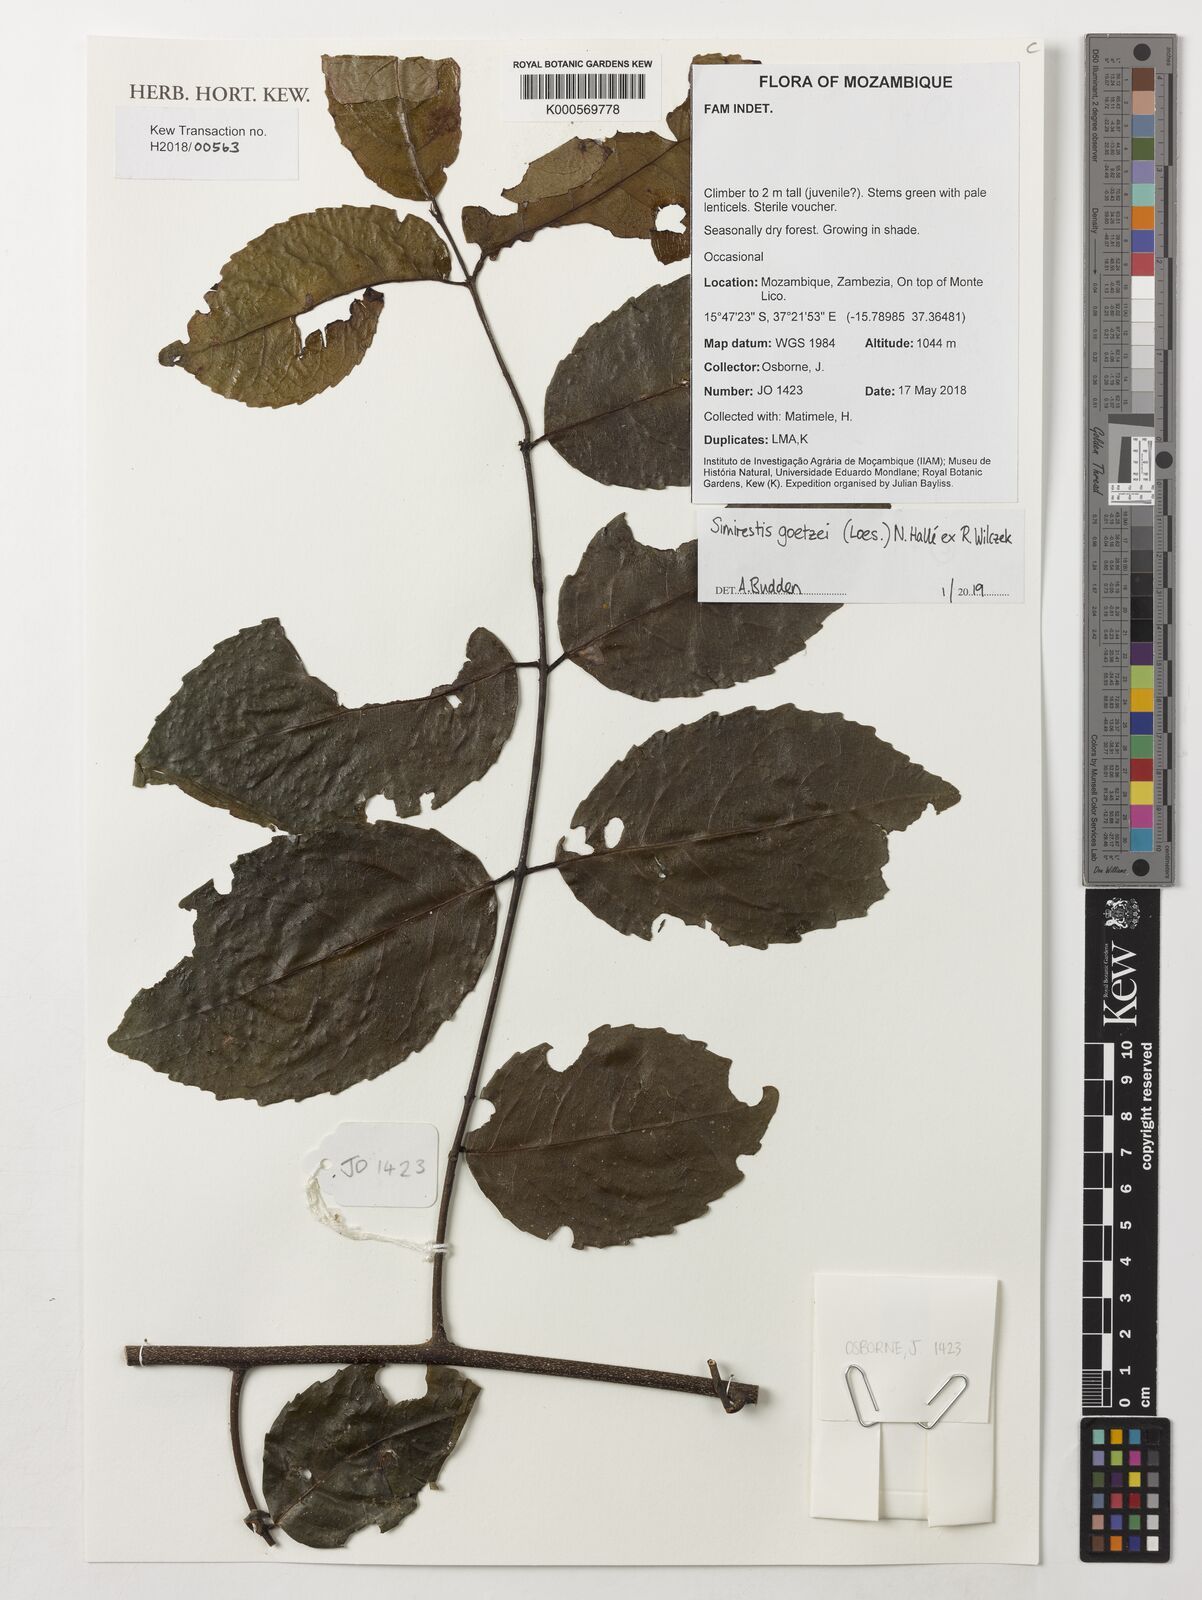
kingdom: Plantae
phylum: Tracheophyta
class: Magnoliopsida
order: Celastrales
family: Celastraceae
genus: Pristimera
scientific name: Pristimera goetzei
